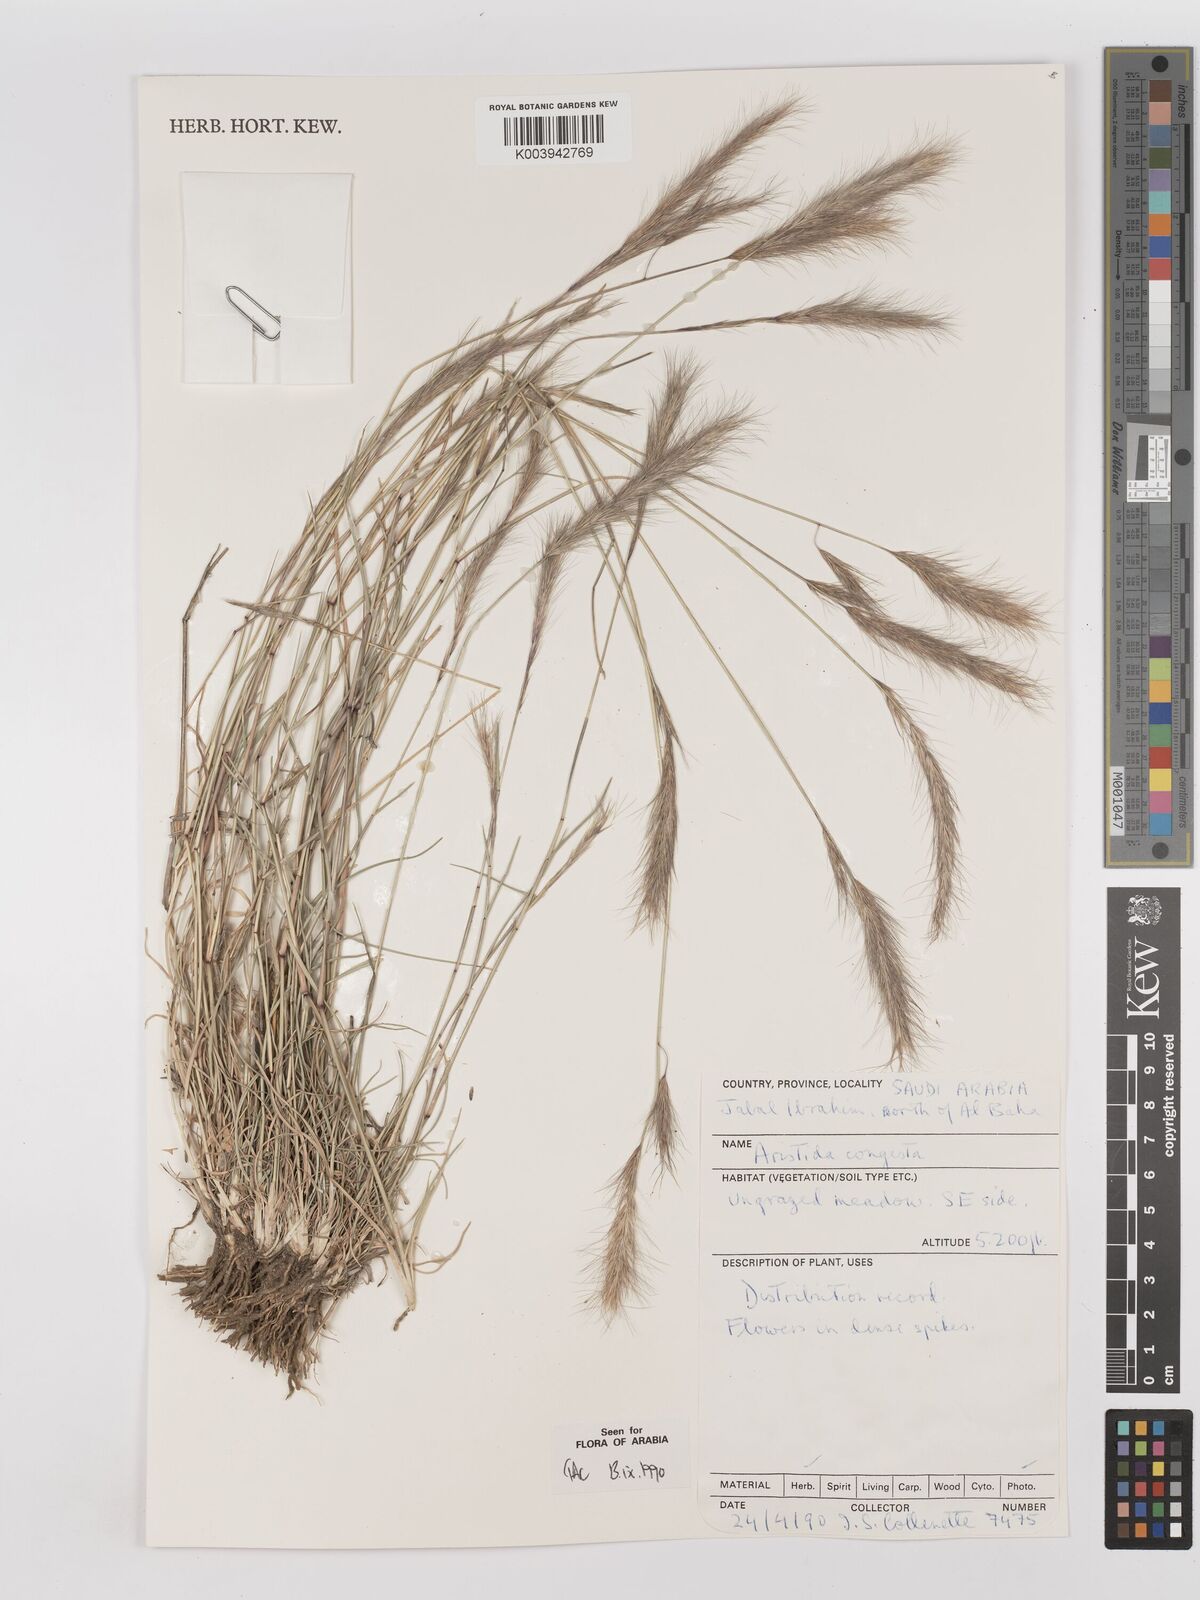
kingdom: Plantae
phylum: Tracheophyta
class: Liliopsida
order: Poales
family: Poaceae
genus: Aristida
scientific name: Aristida congesta
